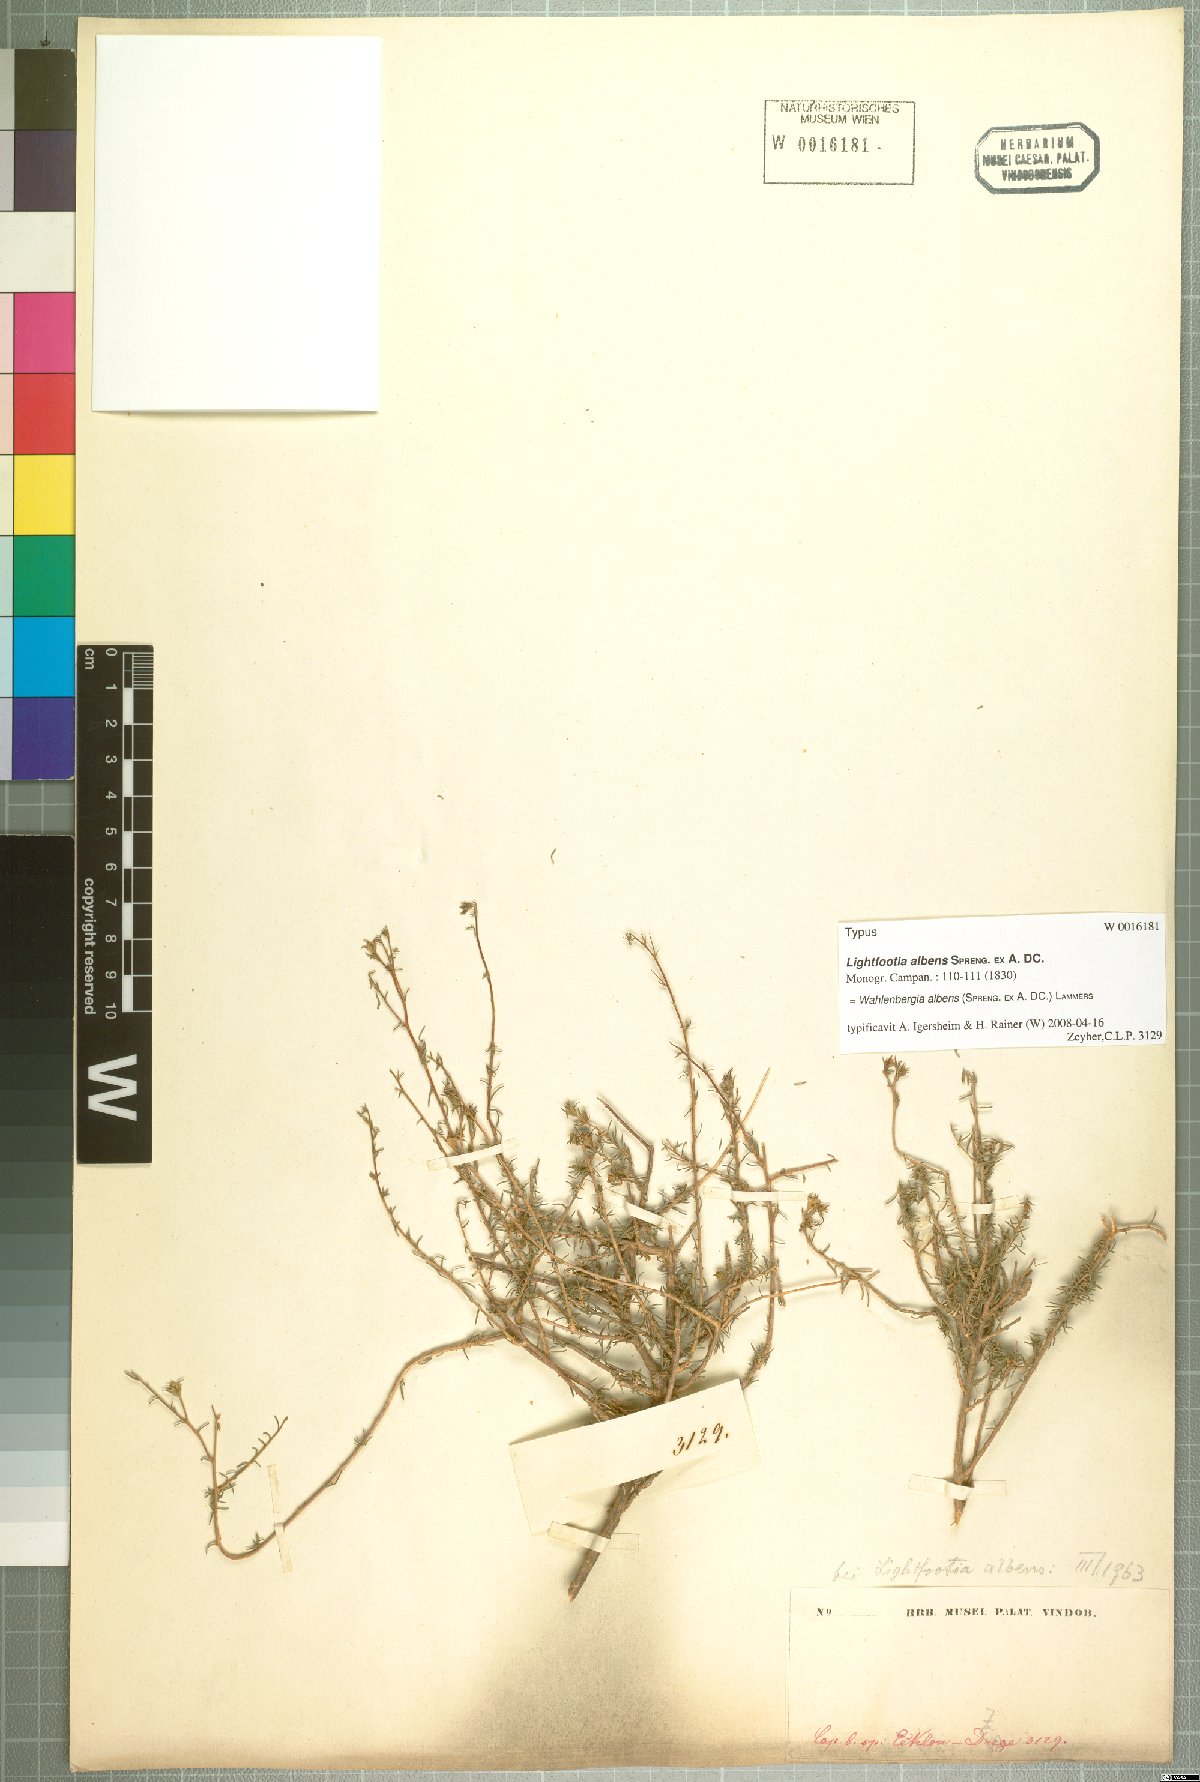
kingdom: Plantae
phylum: Tracheophyta
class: Magnoliopsida
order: Asterales
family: Campanulaceae
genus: Wahlenbergia
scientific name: Wahlenbergia albens
